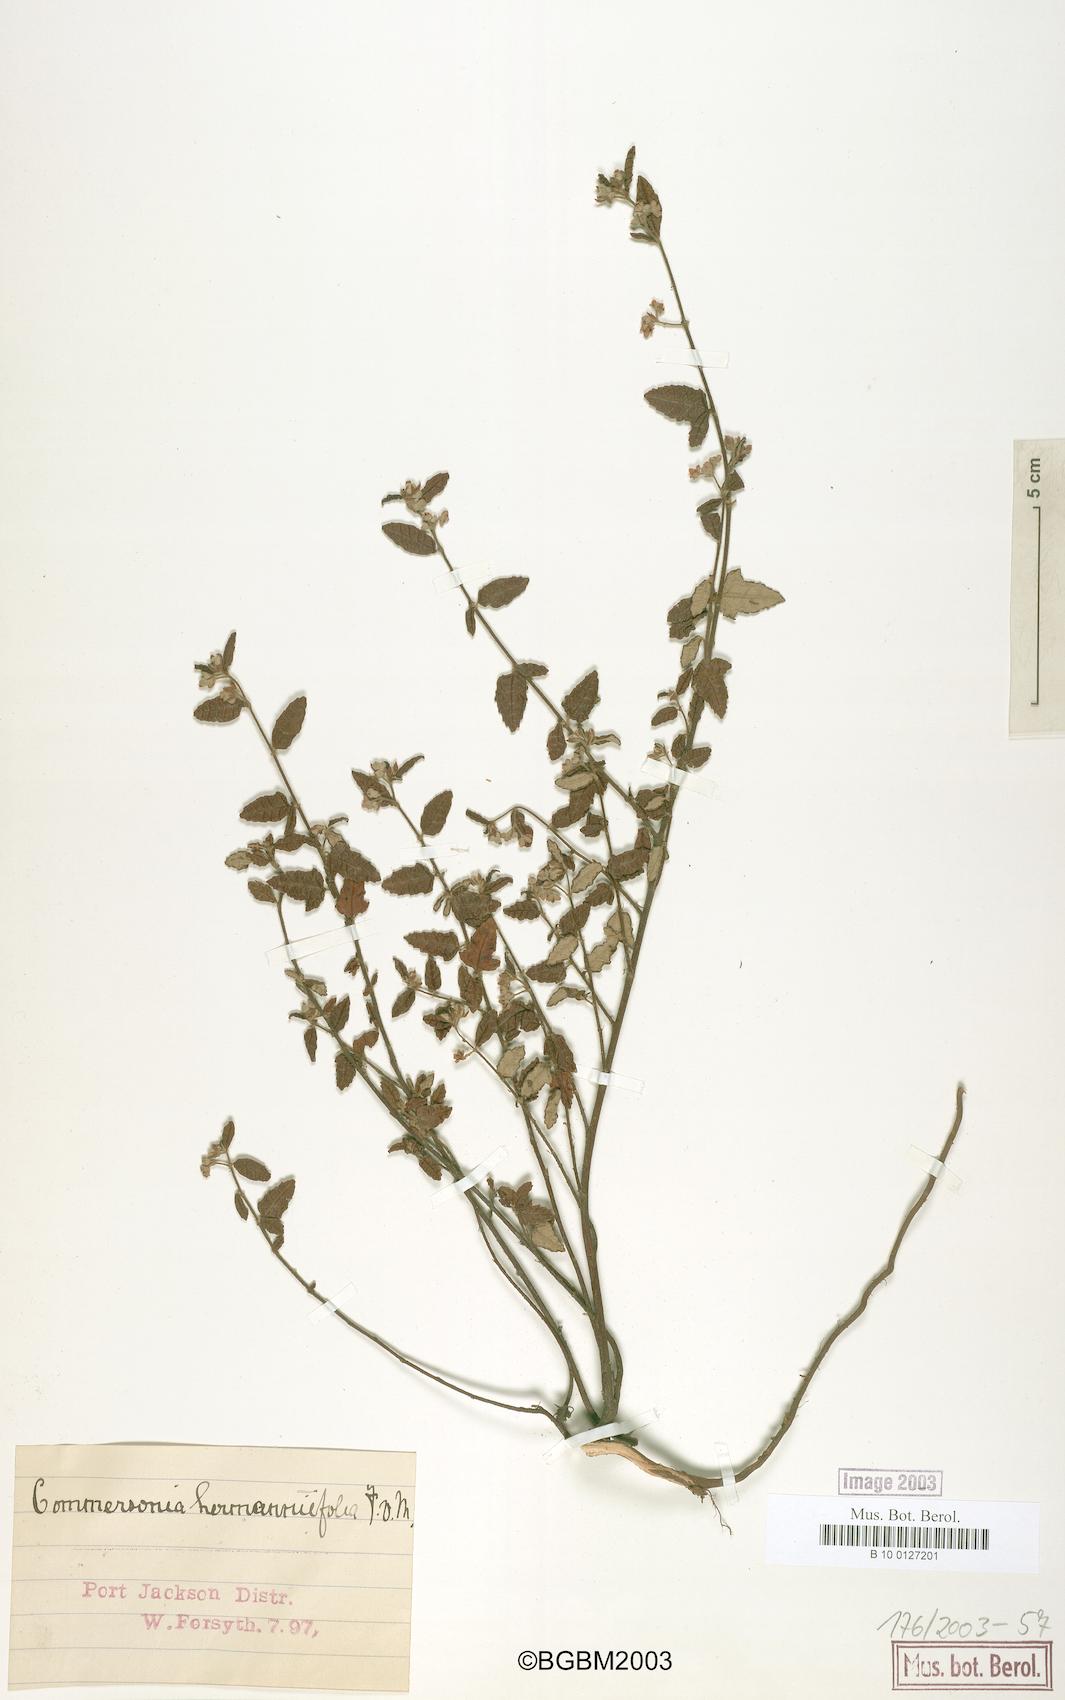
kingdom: Plantae
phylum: Tracheophyta
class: Magnoliopsida
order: Malvales
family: Malvaceae
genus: Commersonia
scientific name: Commersonia hermanniifolia
